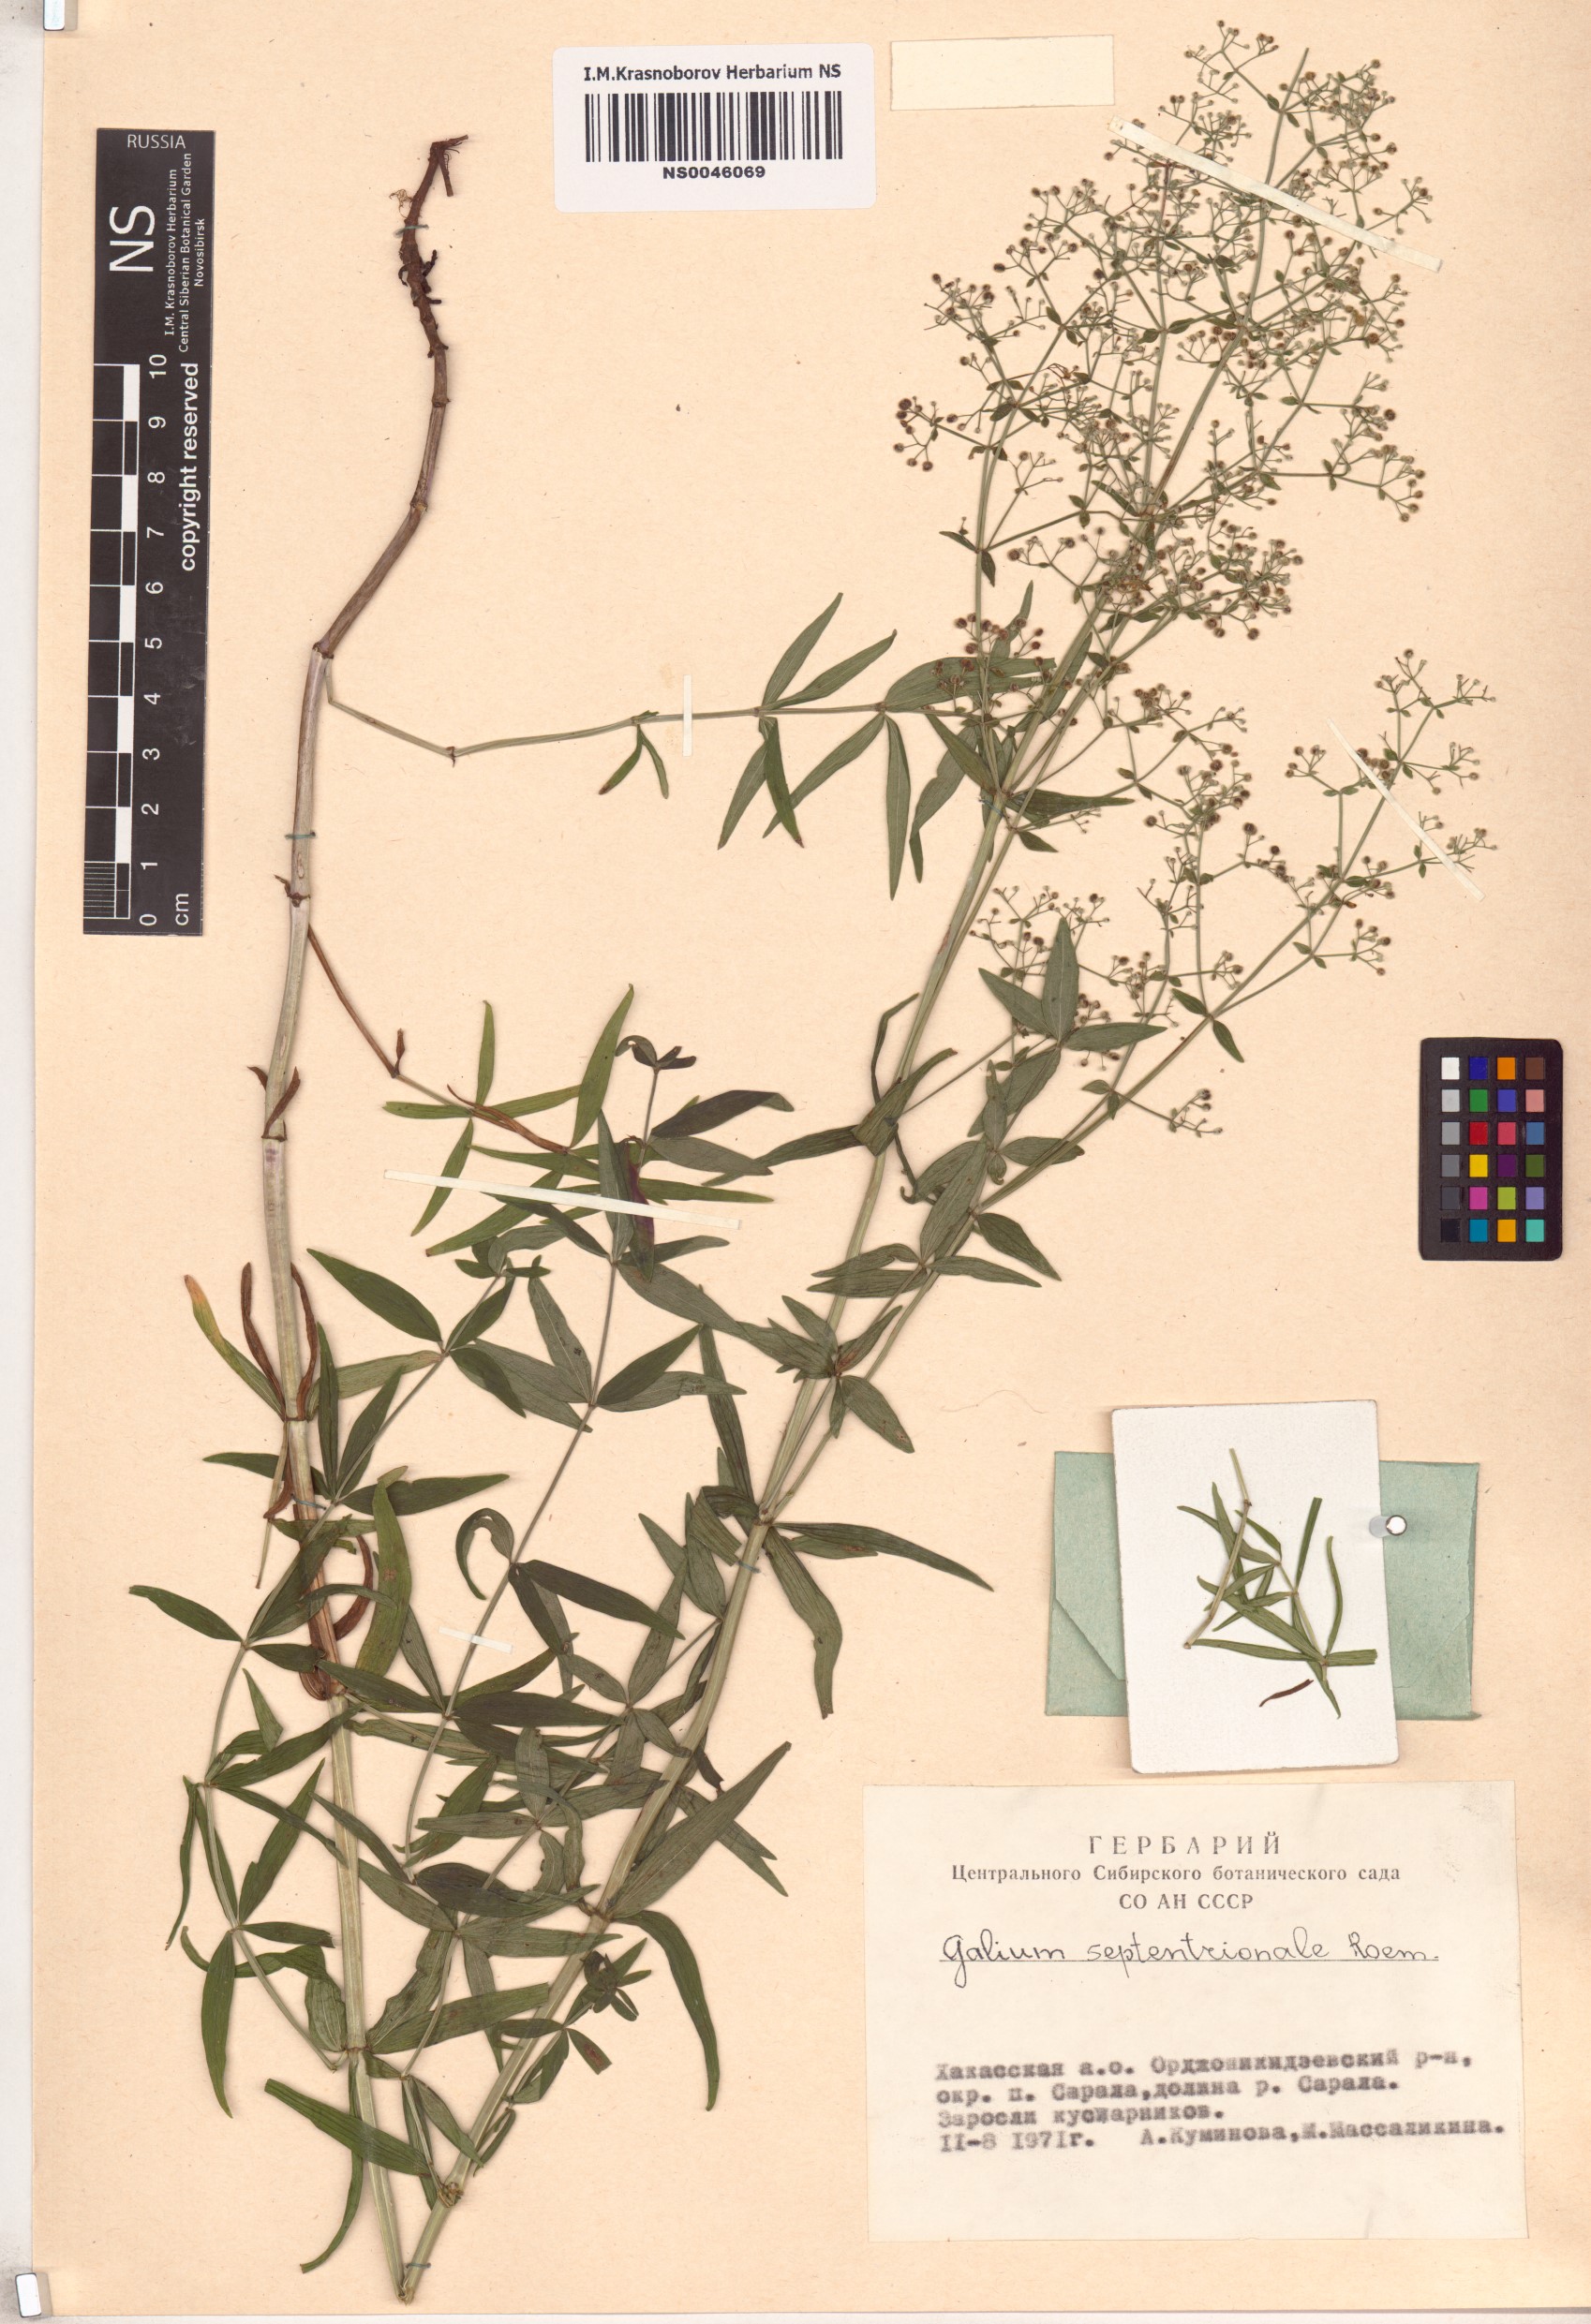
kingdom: Plantae
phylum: Tracheophyta
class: Magnoliopsida
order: Gentianales
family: Rubiaceae
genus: Galium
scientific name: Galium boreale
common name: Northern bedstraw
